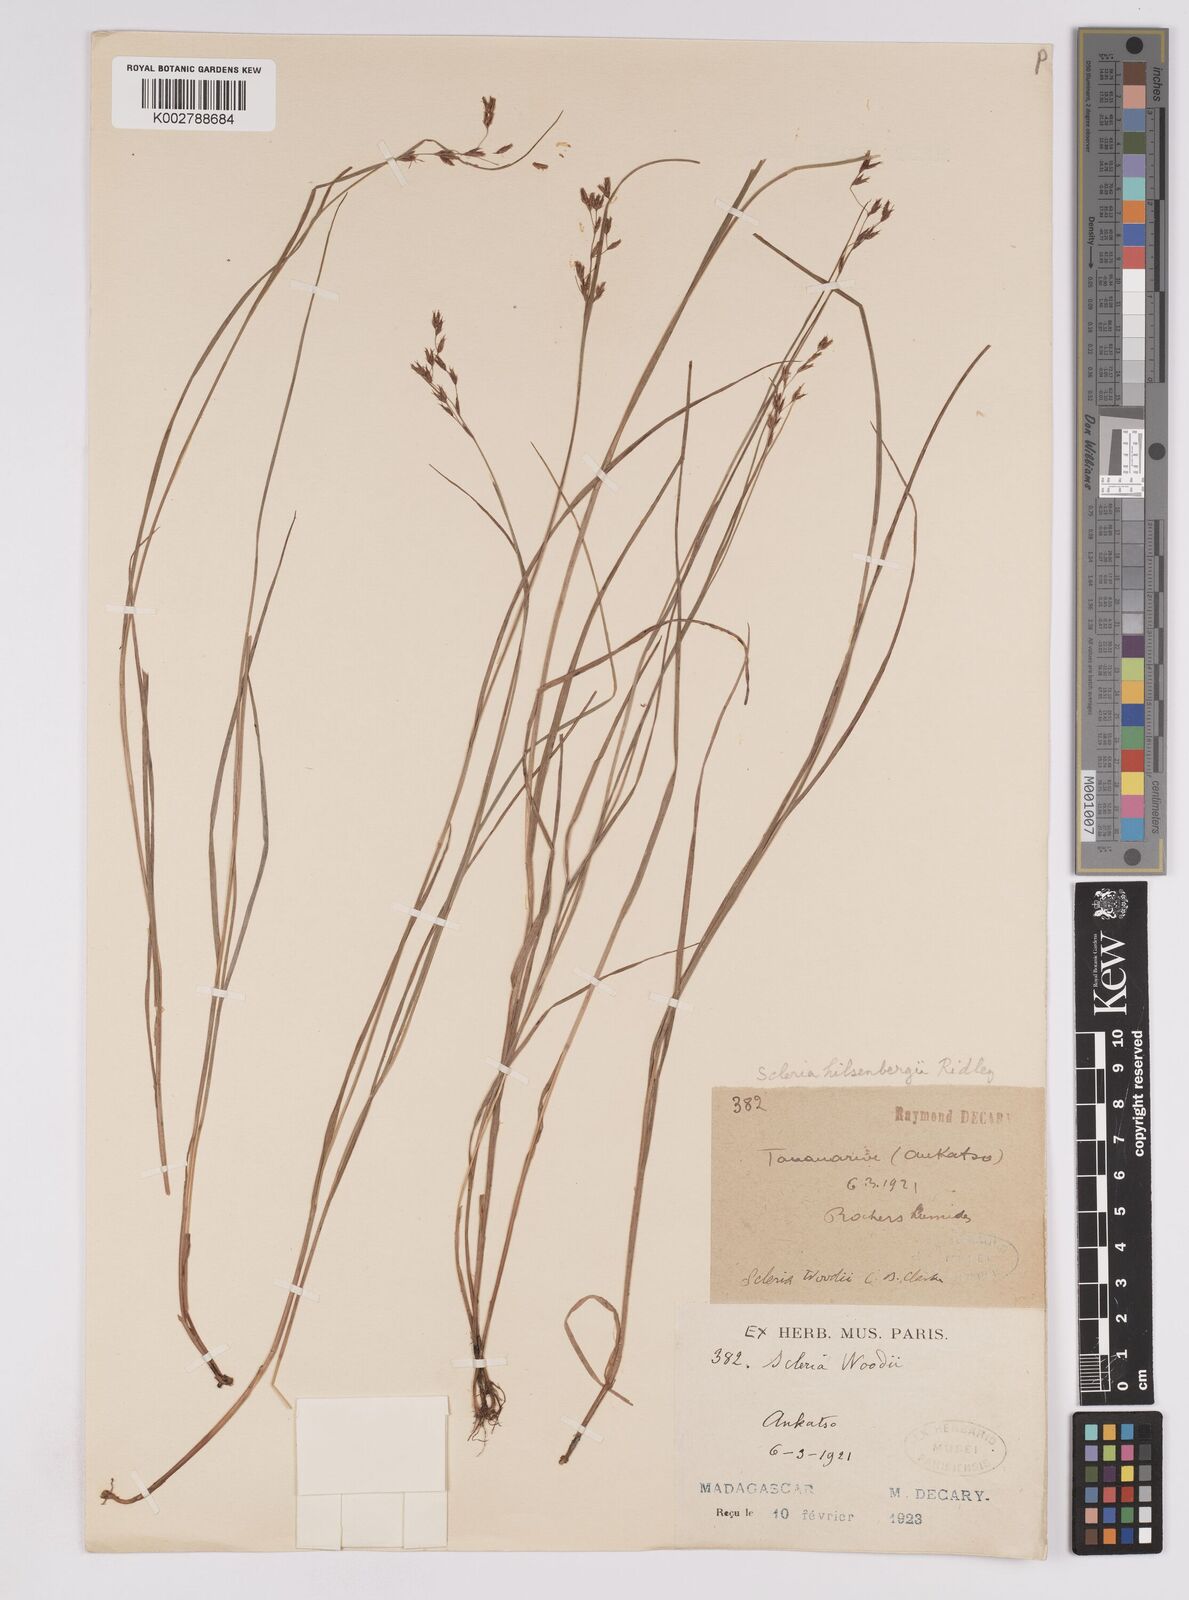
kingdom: Plantae
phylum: Tracheophyta
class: Liliopsida
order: Poales
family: Cyperaceae
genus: Scleria
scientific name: Scleria
